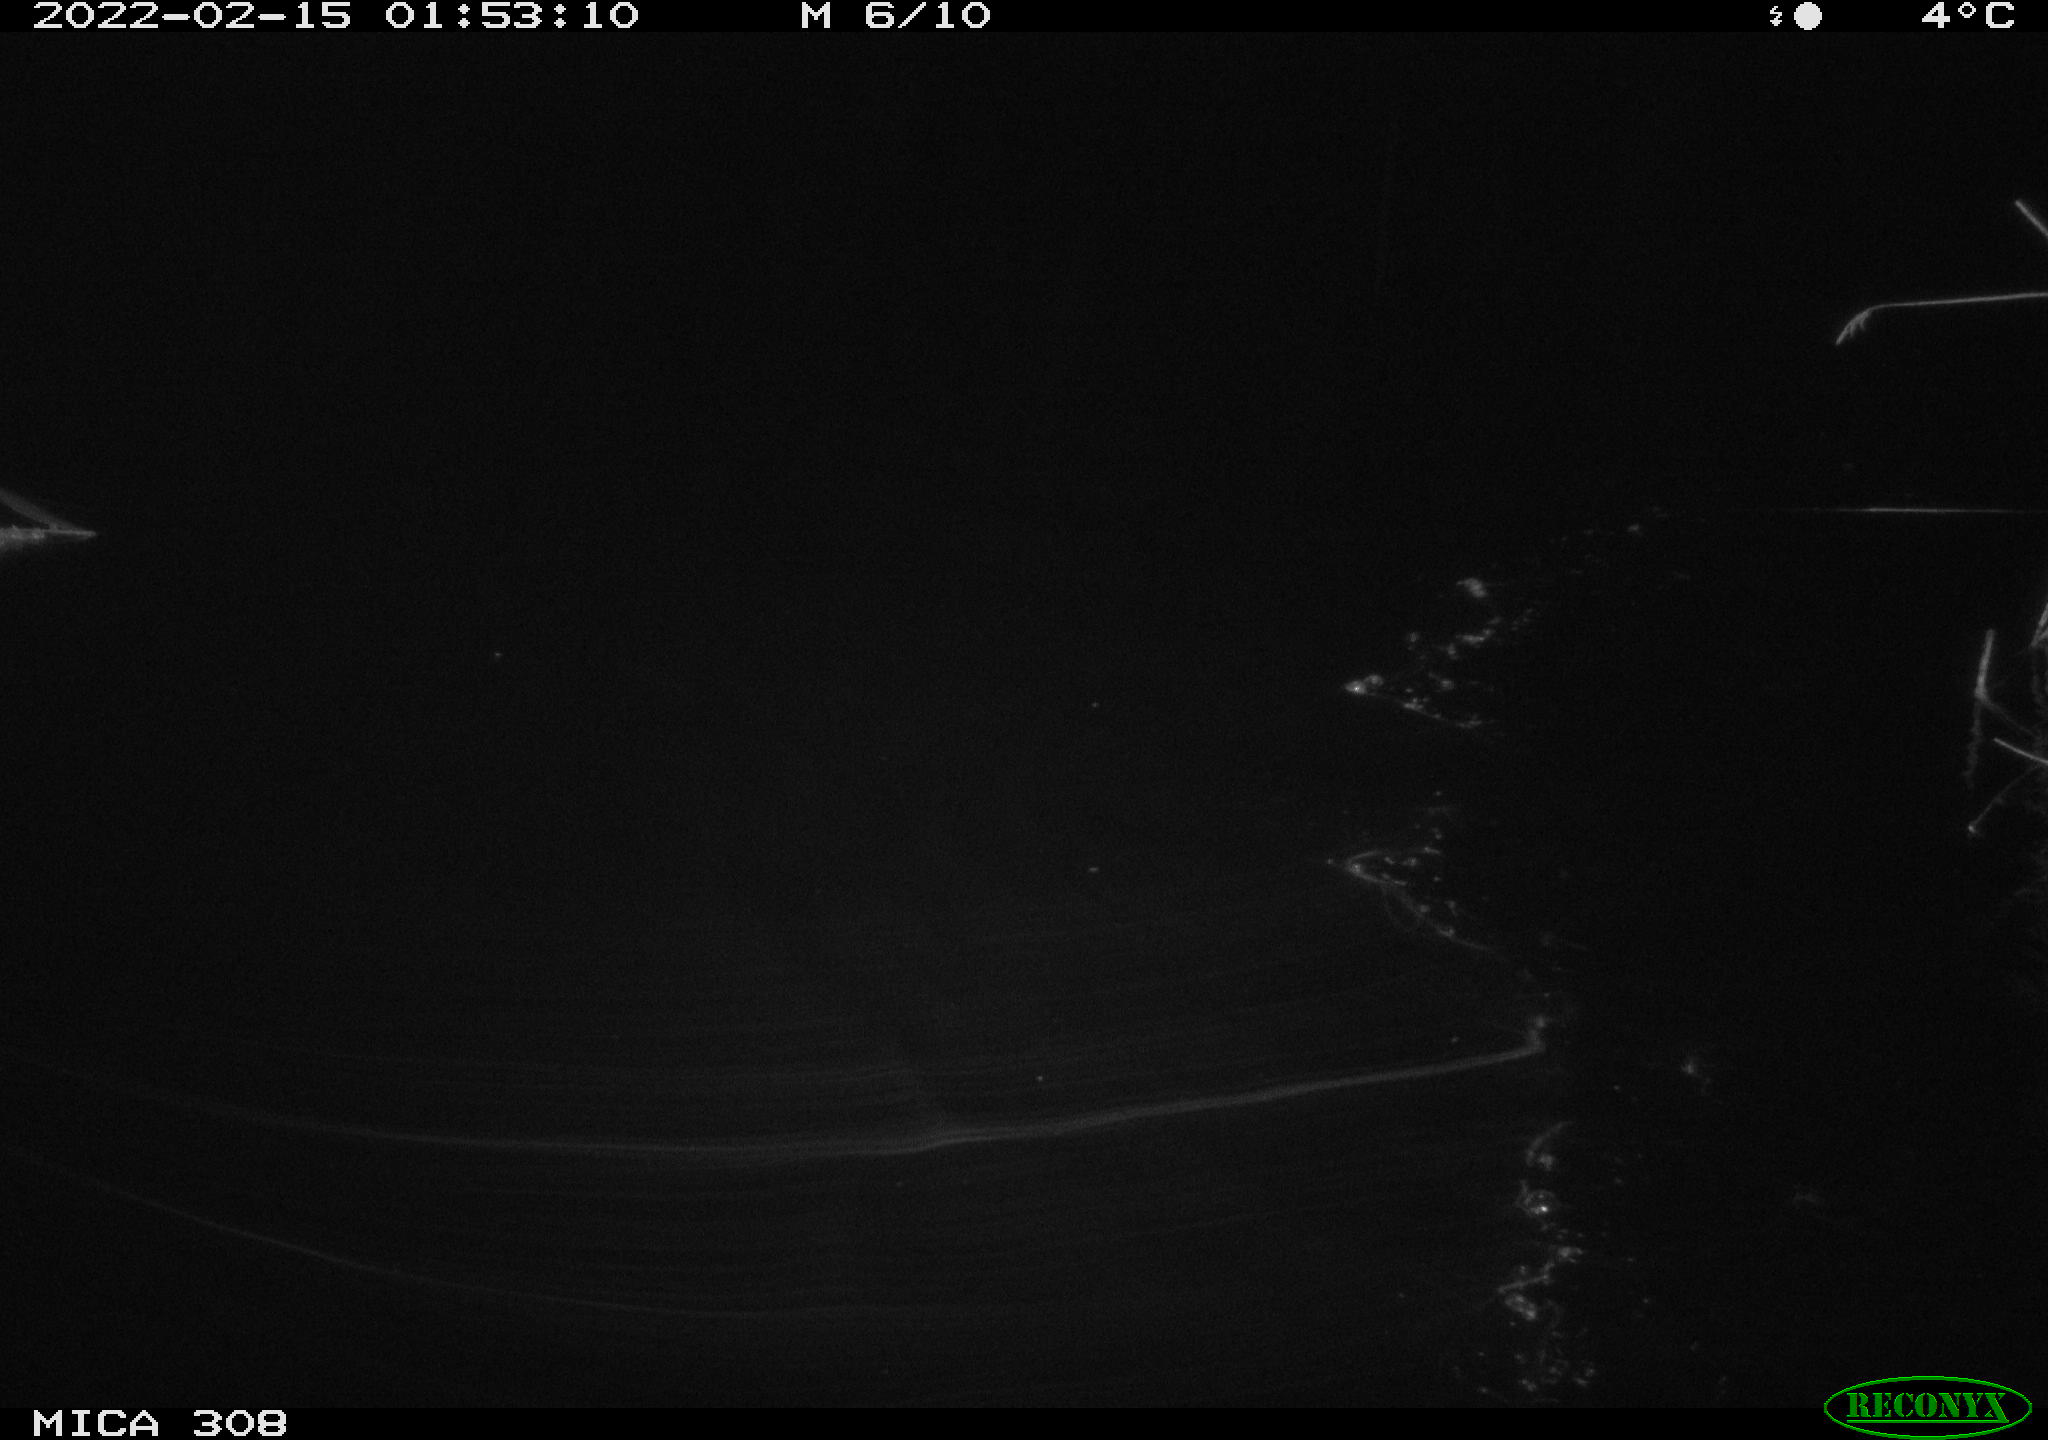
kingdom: Animalia
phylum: Chordata
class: Aves
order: Anseriformes
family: Anatidae
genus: Anas
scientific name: Anas platyrhynchos
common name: Mallard
